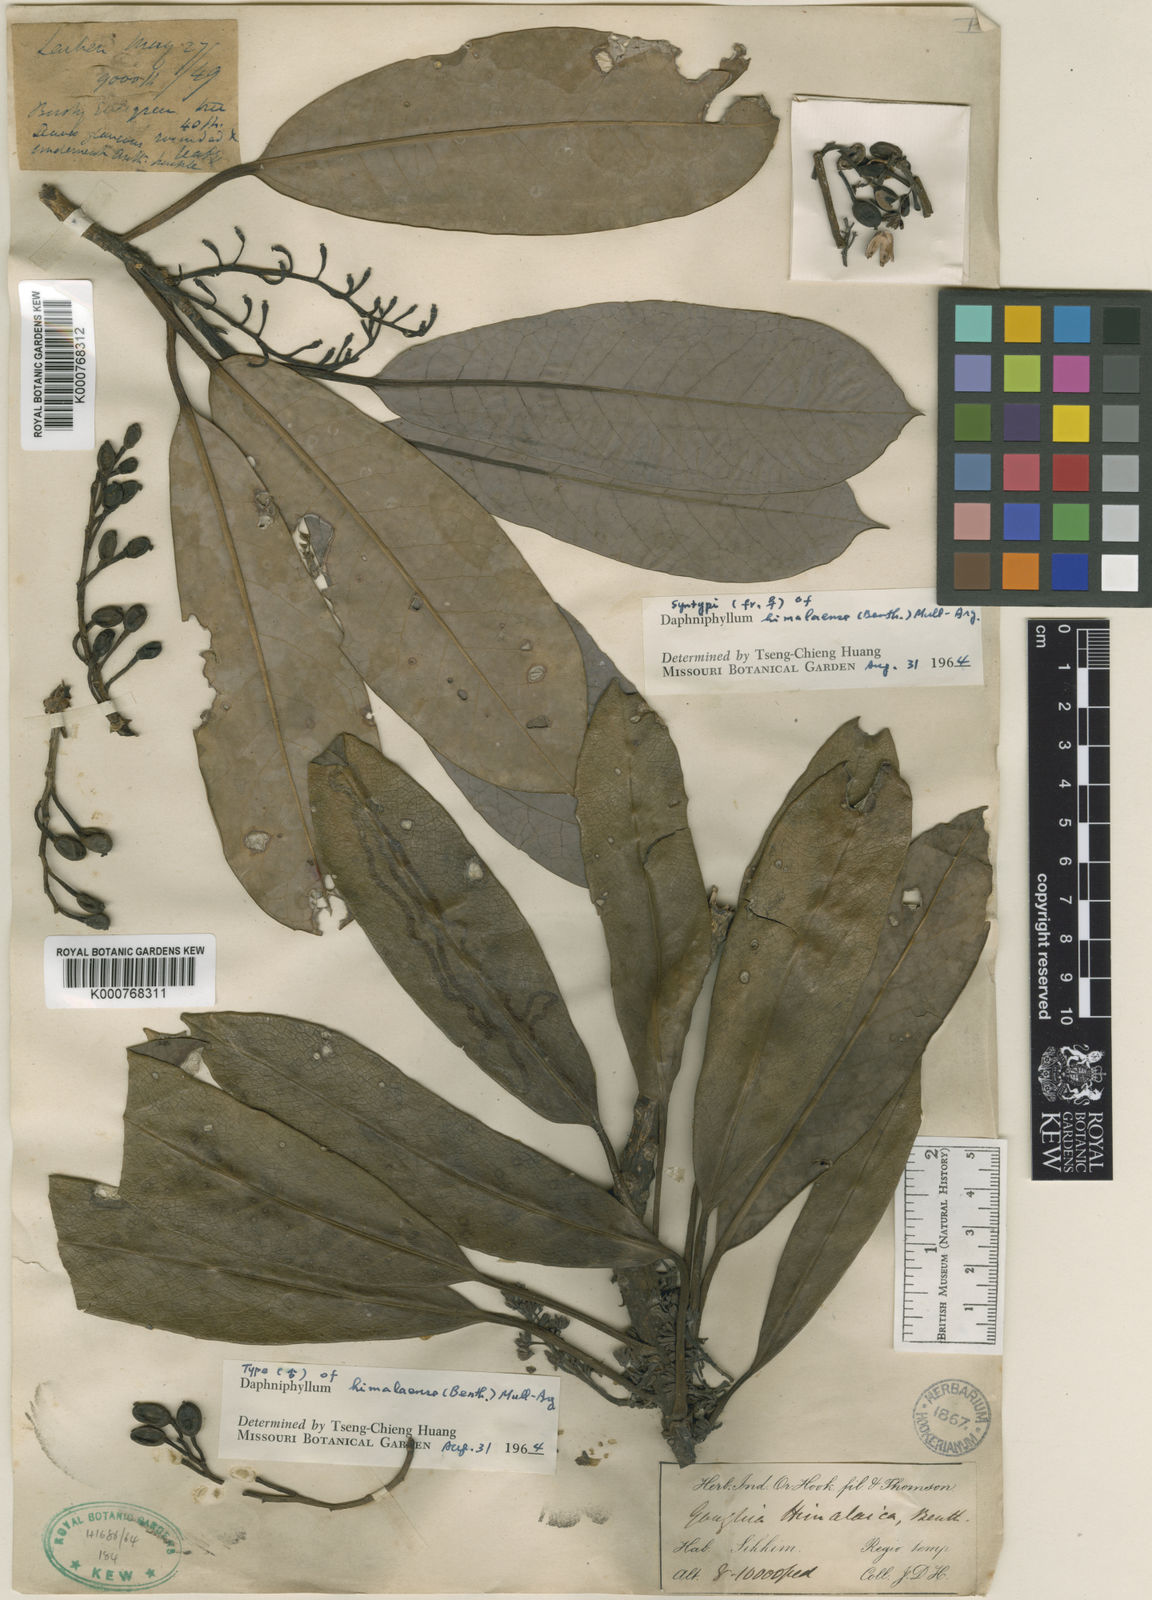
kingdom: Plantae
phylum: Tracheophyta
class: Magnoliopsida
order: Saxifragales
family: Daphniphyllaceae
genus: Daphniphyllum
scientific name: Daphniphyllum
